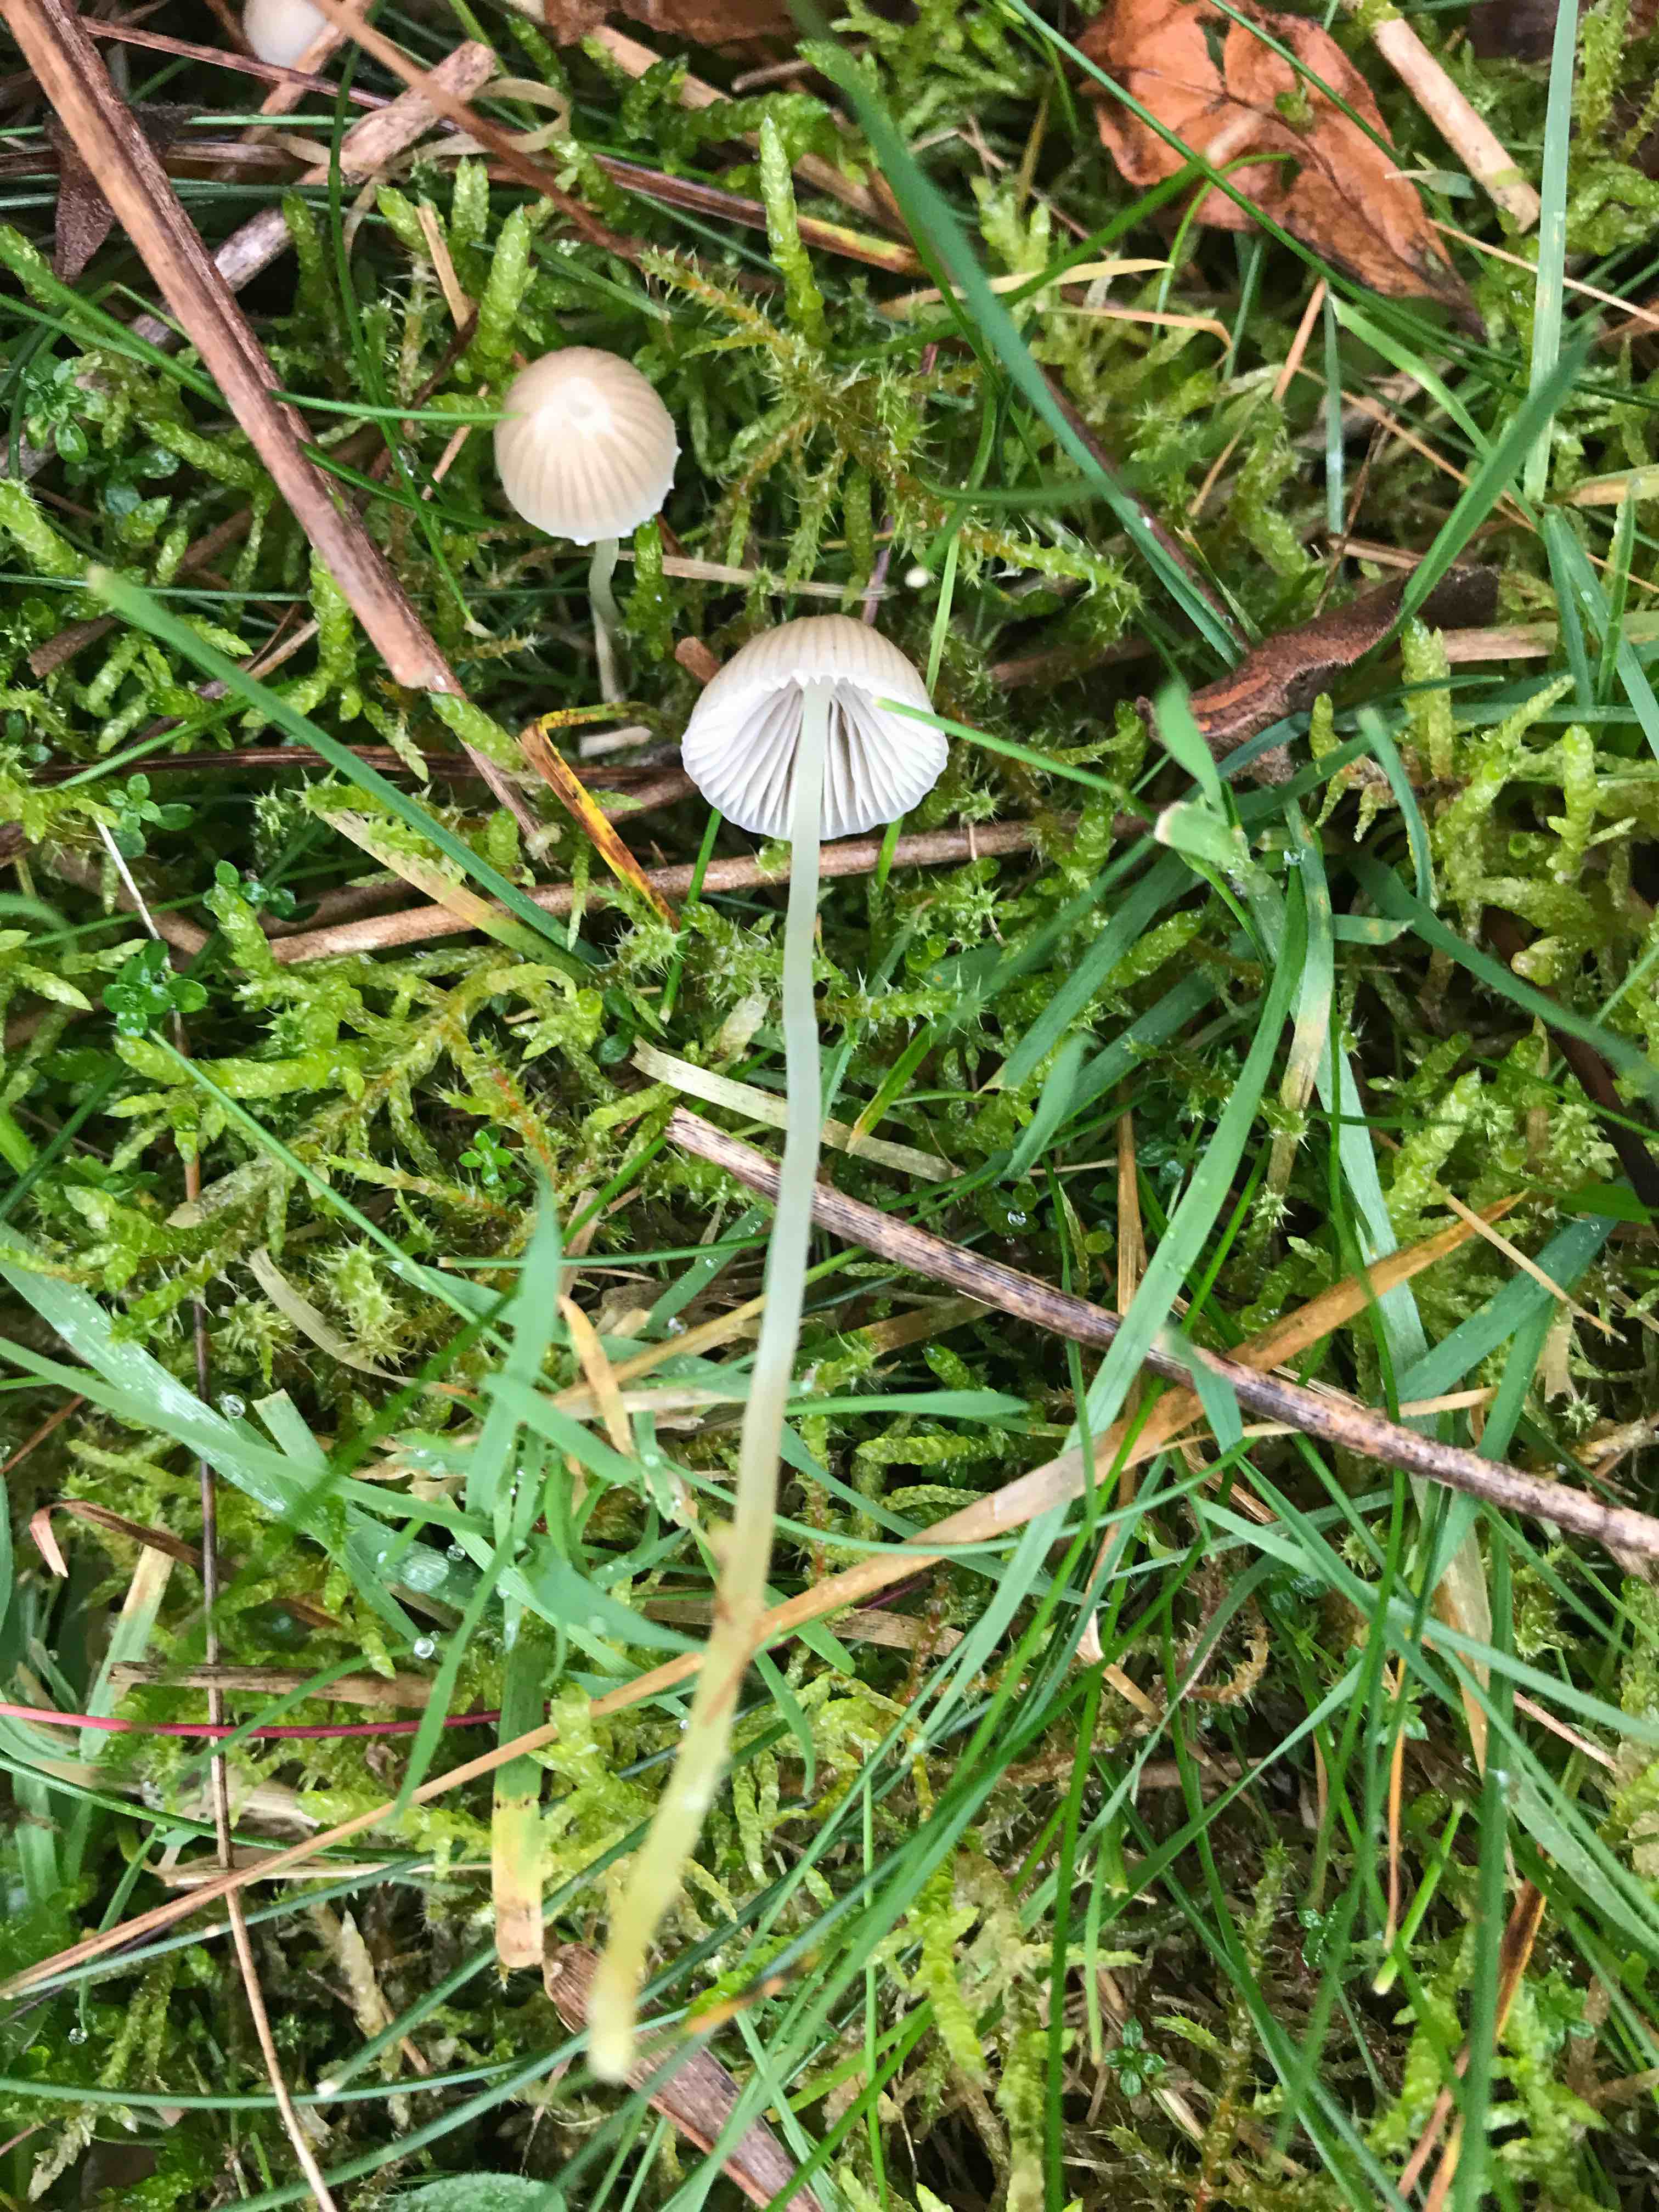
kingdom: Fungi
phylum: Basidiomycota
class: Agaricomycetes
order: Agaricales
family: Mycenaceae
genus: Mycena
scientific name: Mycena epipterygia
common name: gulstokket huesvamp
